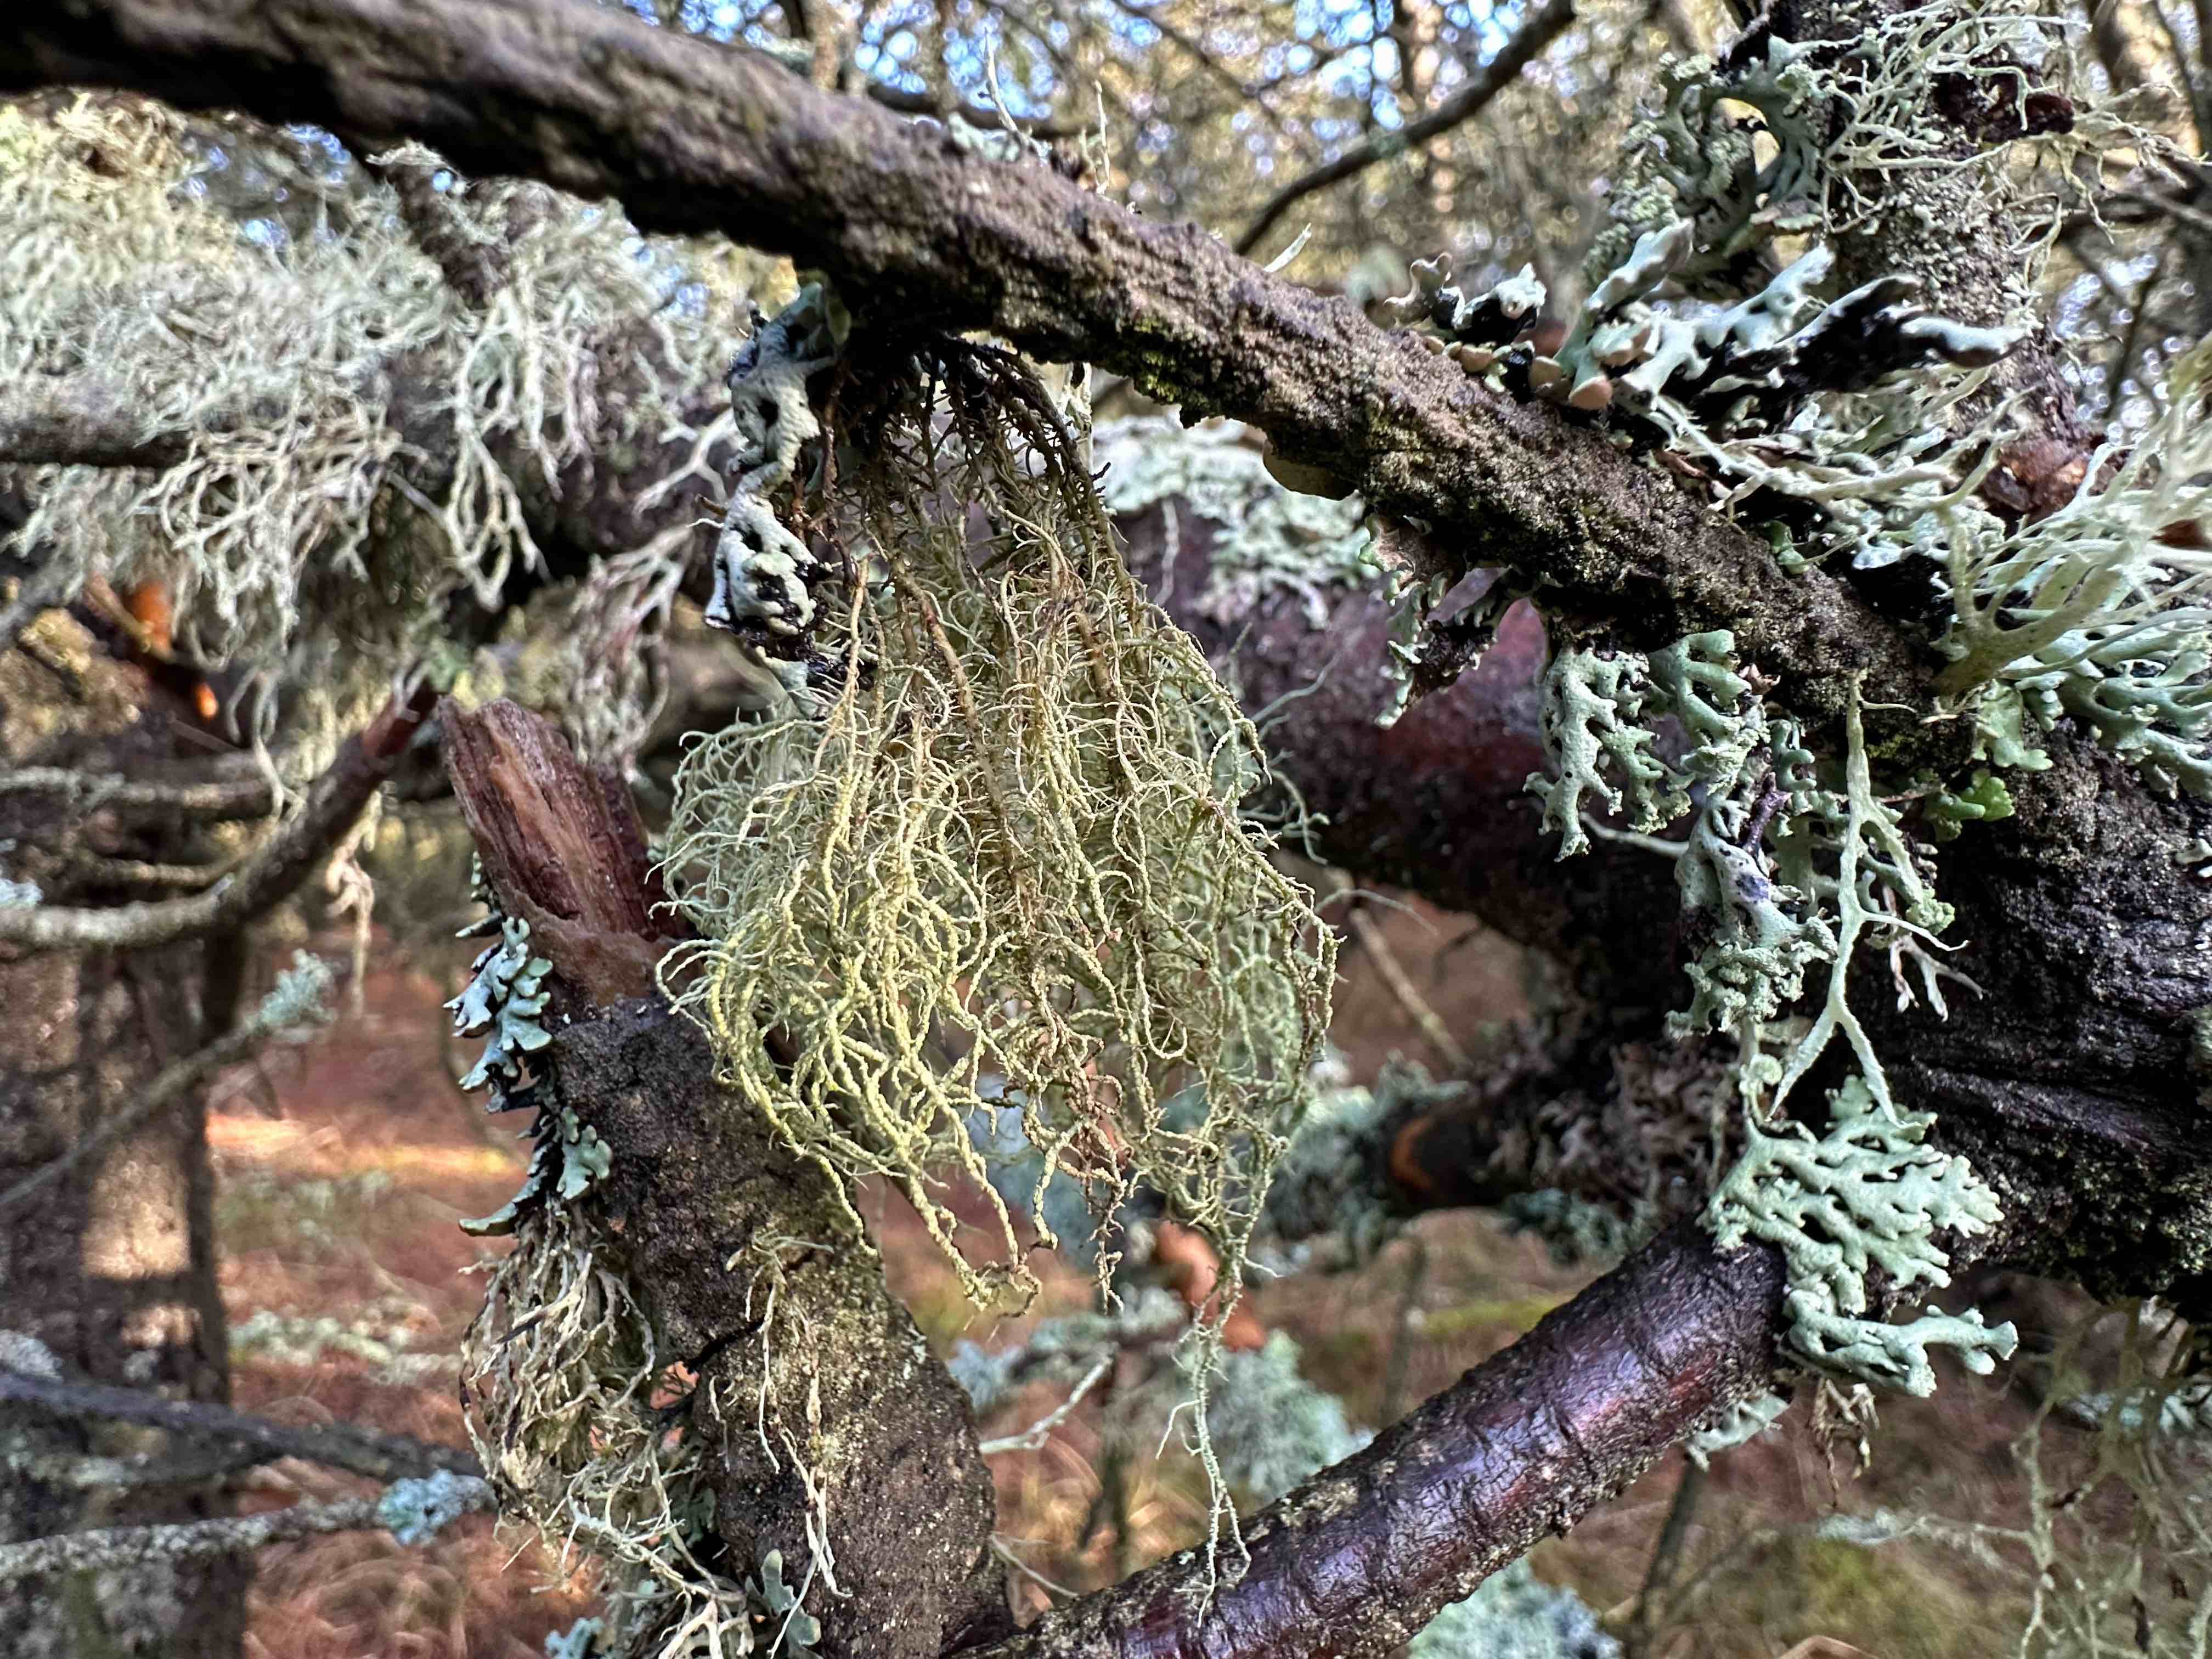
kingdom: Fungi
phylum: Ascomycota
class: Lecanoromycetes
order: Lecanorales
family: Parmeliaceae
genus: Usnea
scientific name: Usnea subfloridana
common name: busket skæglav
